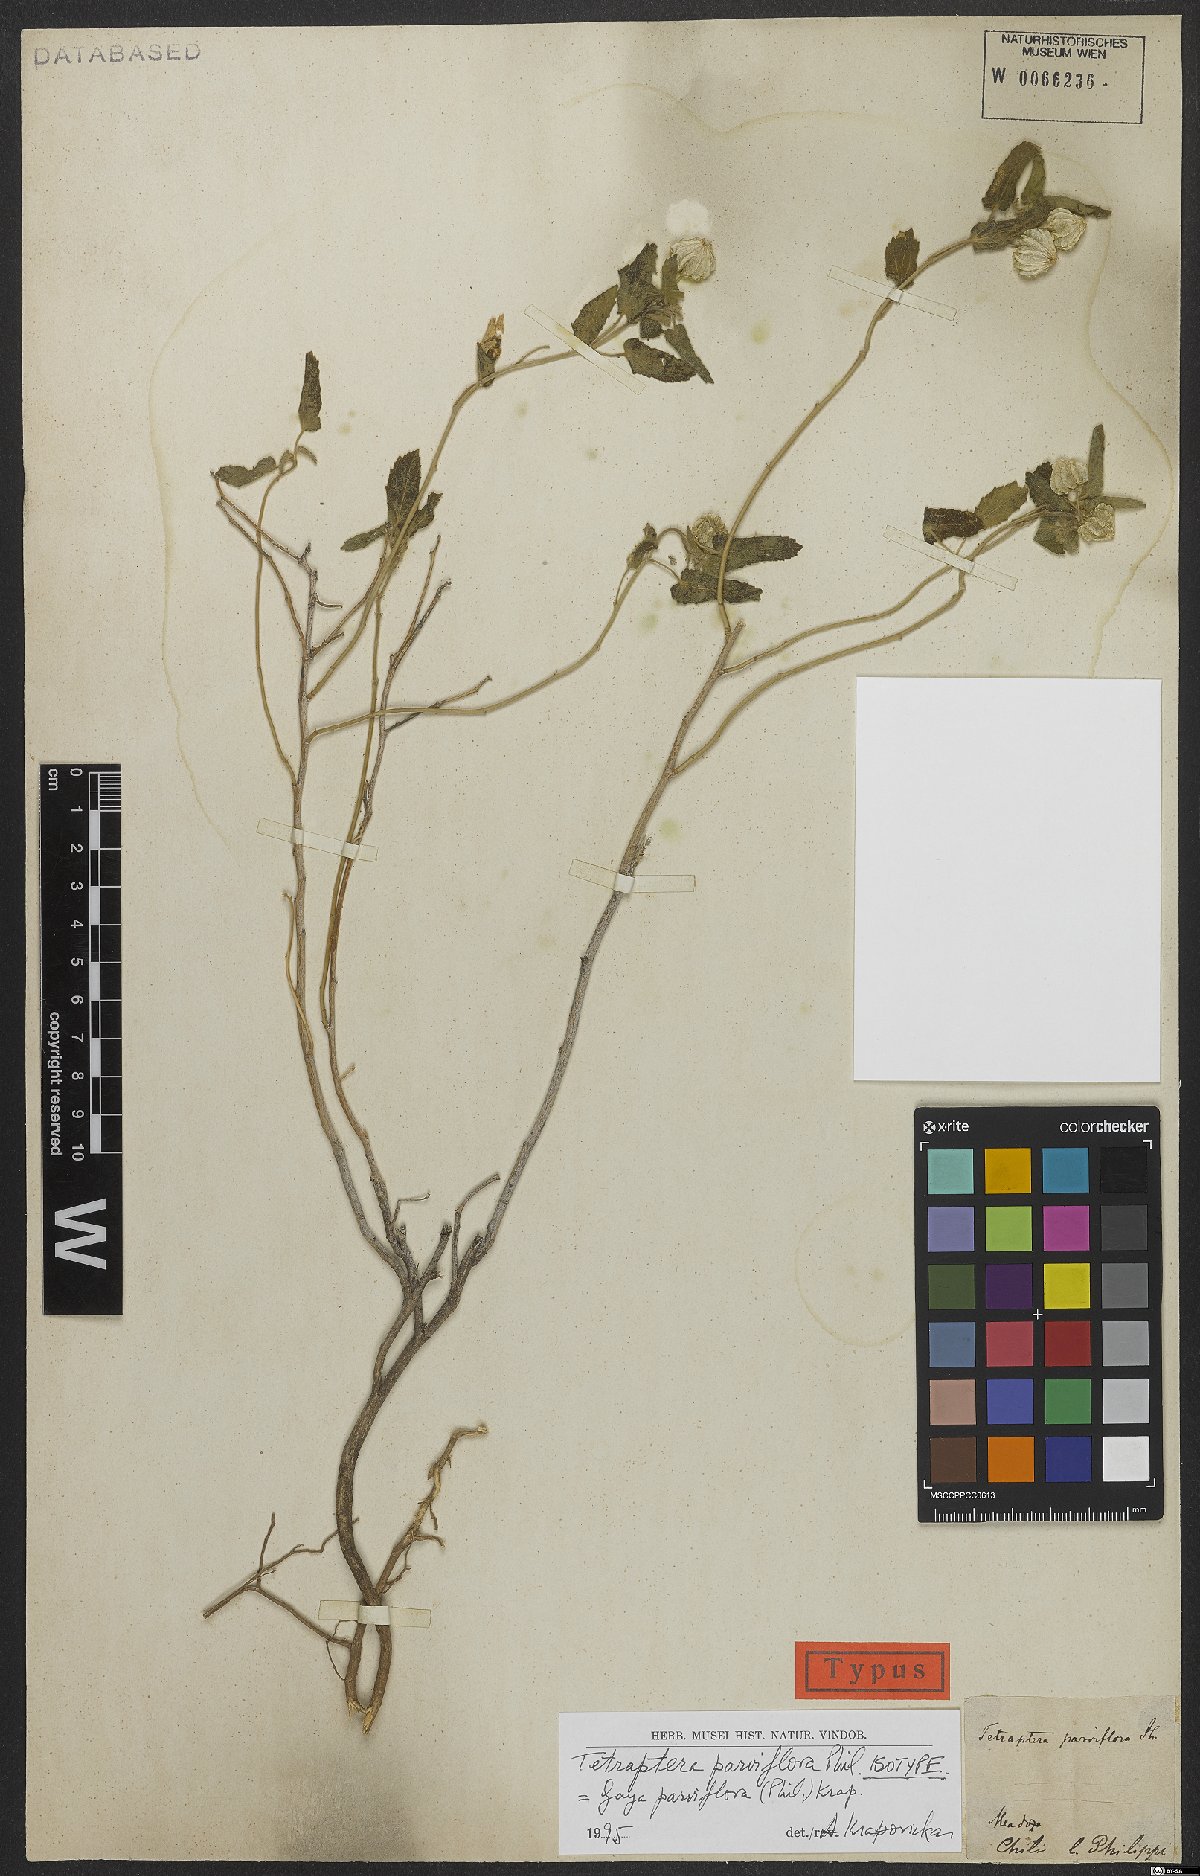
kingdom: Plantae
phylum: Tracheophyta
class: Magnoliopsida
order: Malvales
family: Malvaceae
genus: Gaya
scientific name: Gaya parviflora
